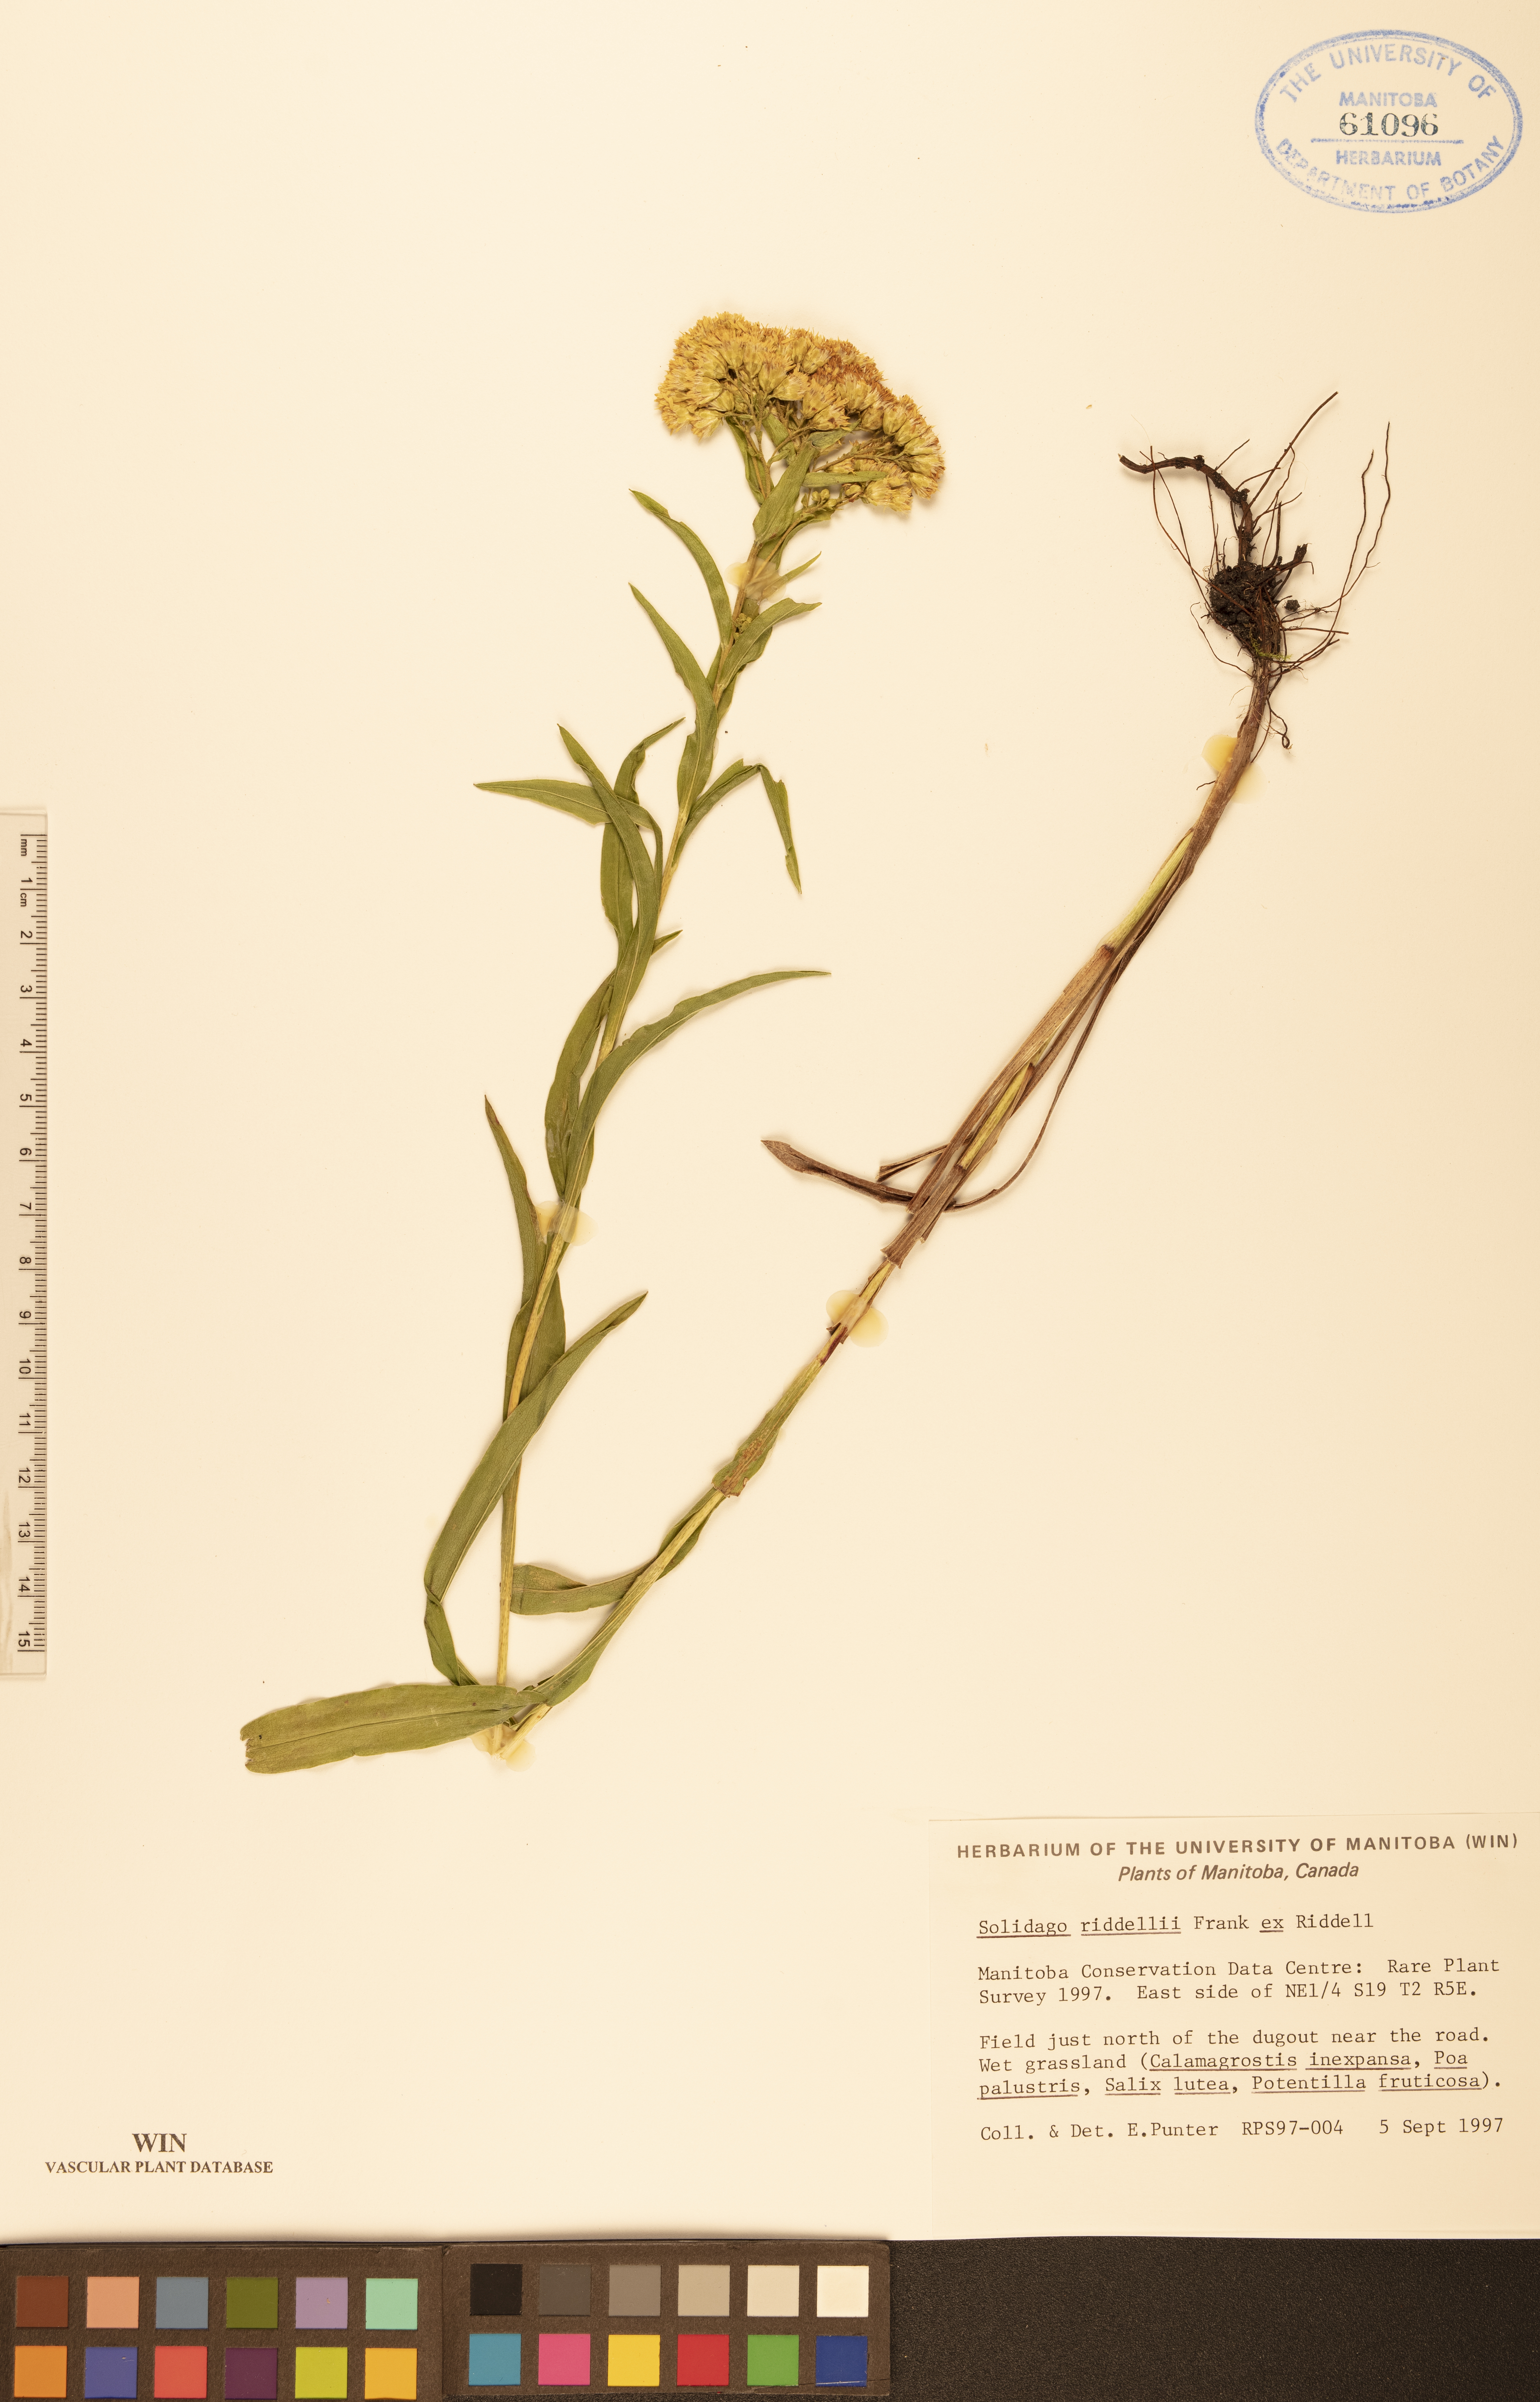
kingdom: Plantae
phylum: Tracheophyta
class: Magnoliopsida
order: Asterales
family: Asteraceae
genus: Solidago
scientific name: Solidago riddellii
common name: Riddell's goldenrod
